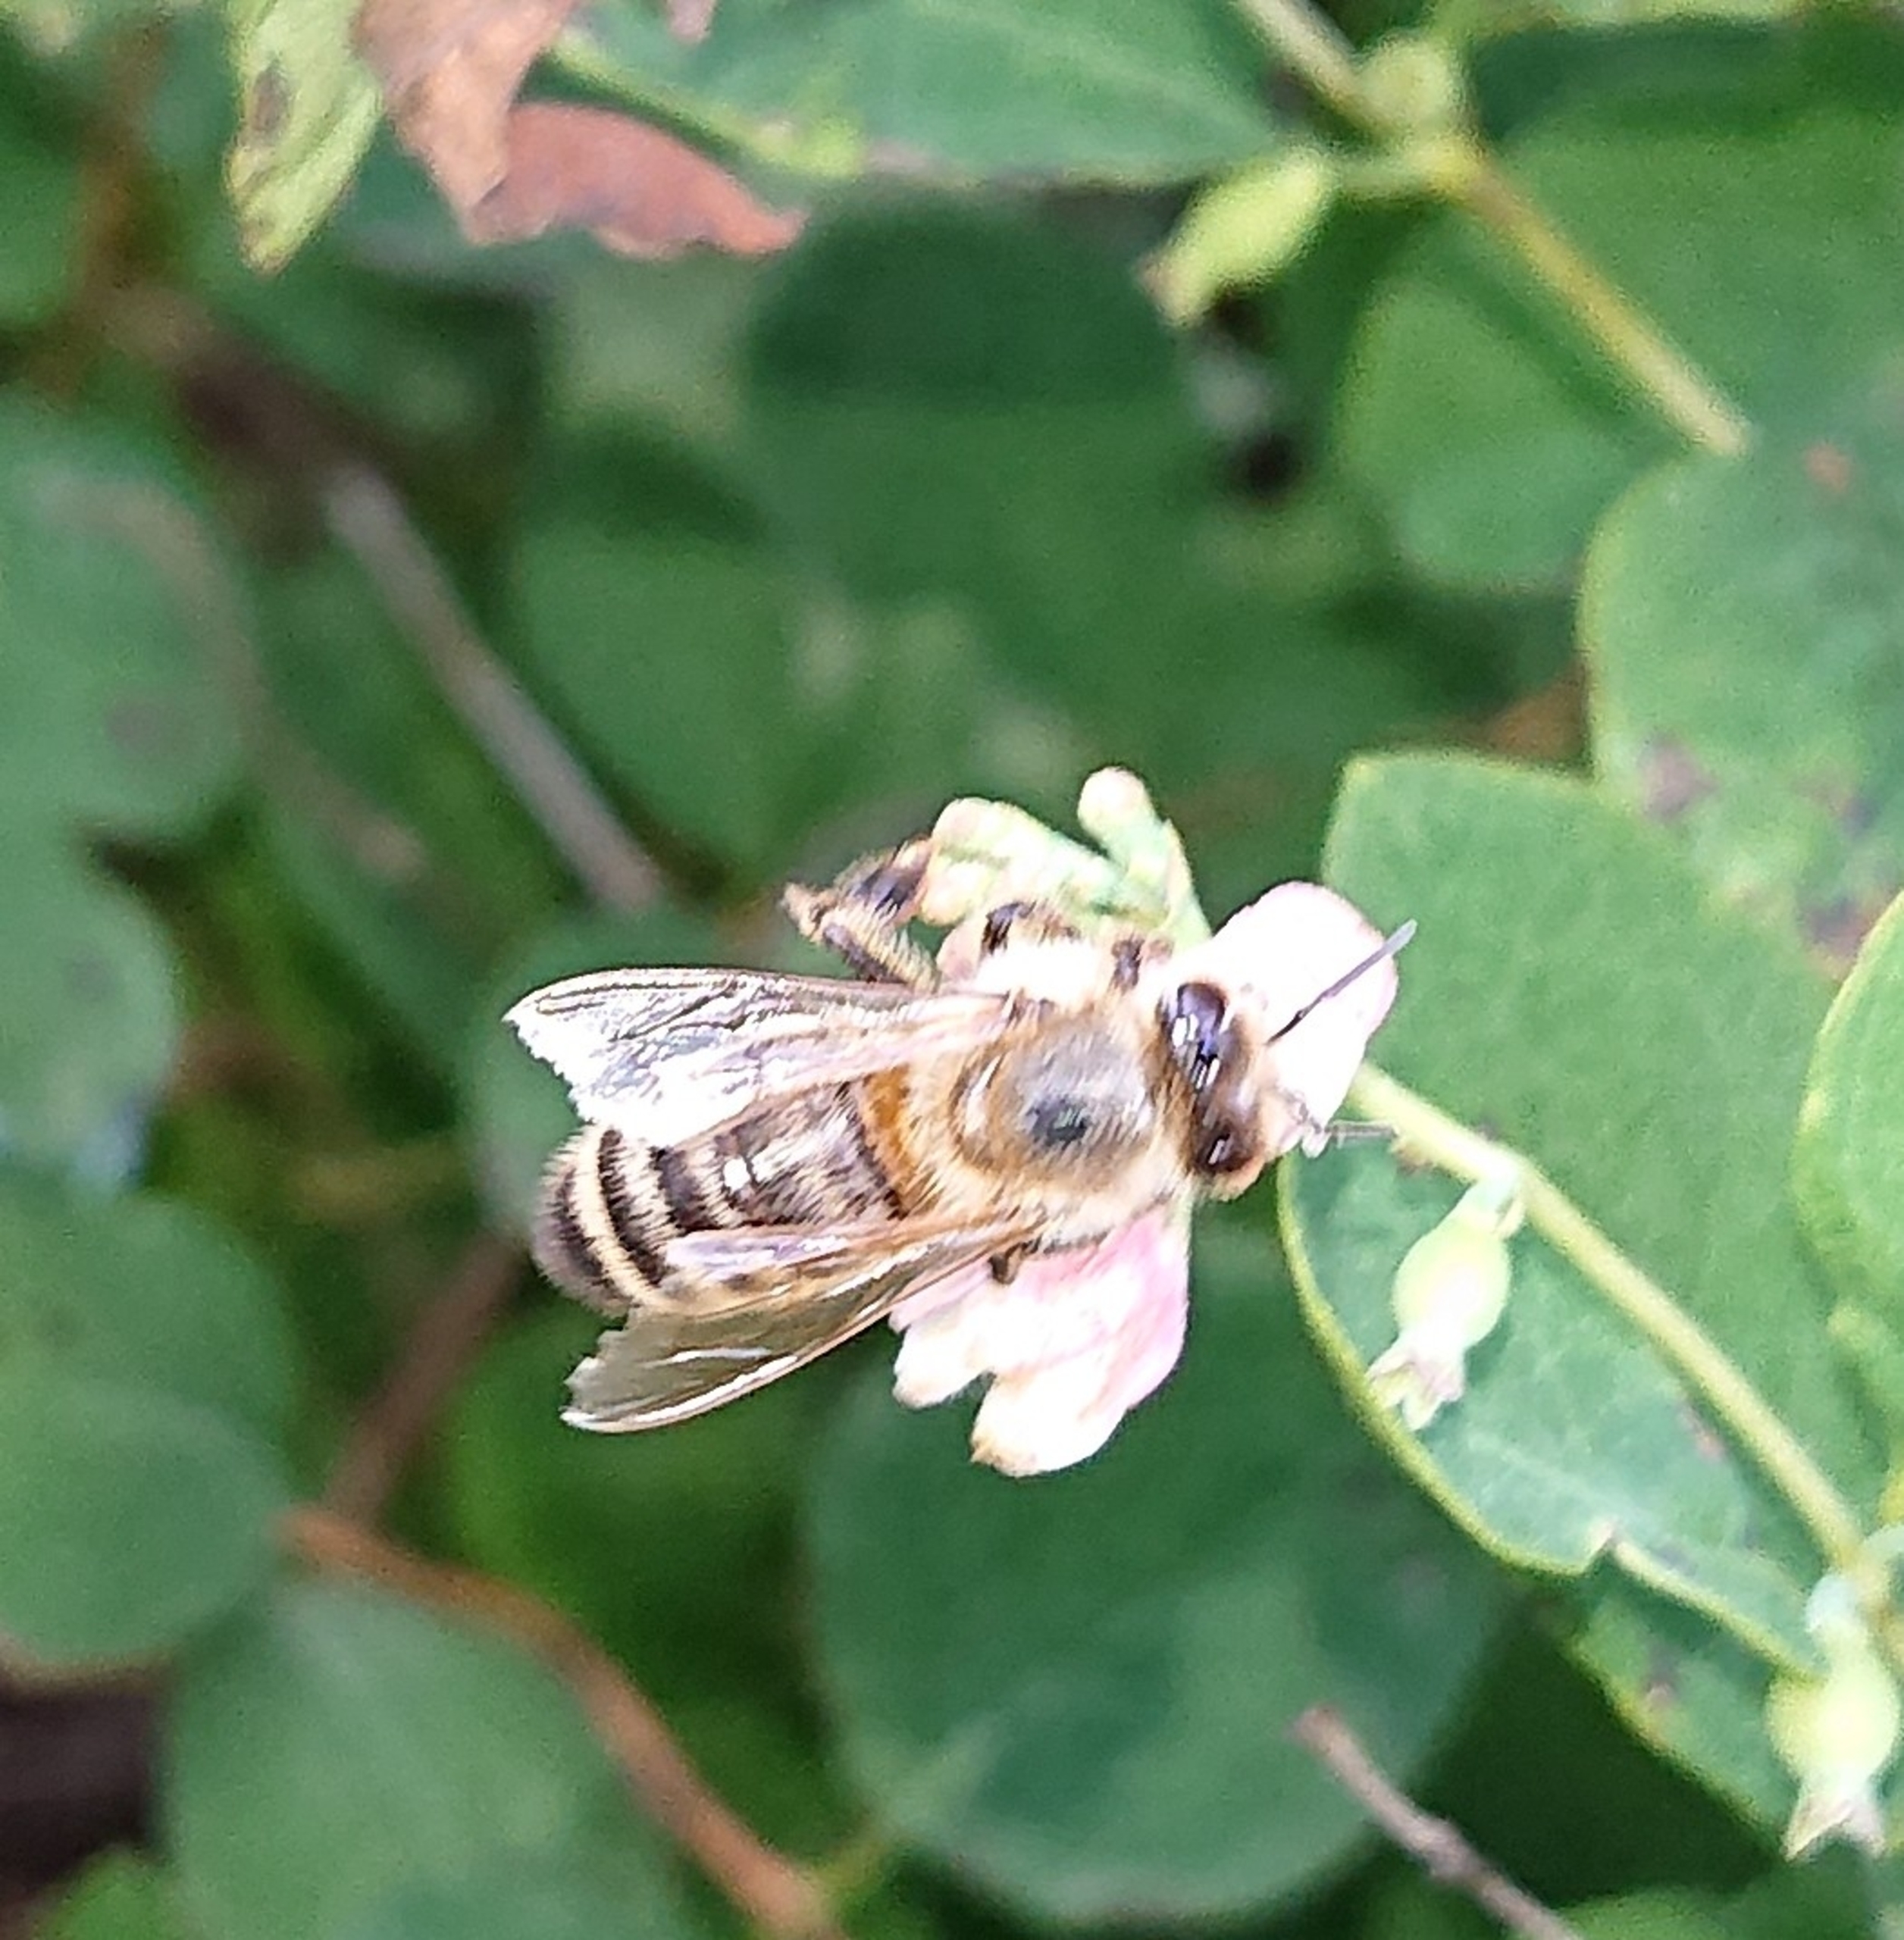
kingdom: Animalia
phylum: Arthropoda
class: Insecta
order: Hymenoptera
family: Apidae
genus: Apis
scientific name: Apis mellifera
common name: Honningbi
